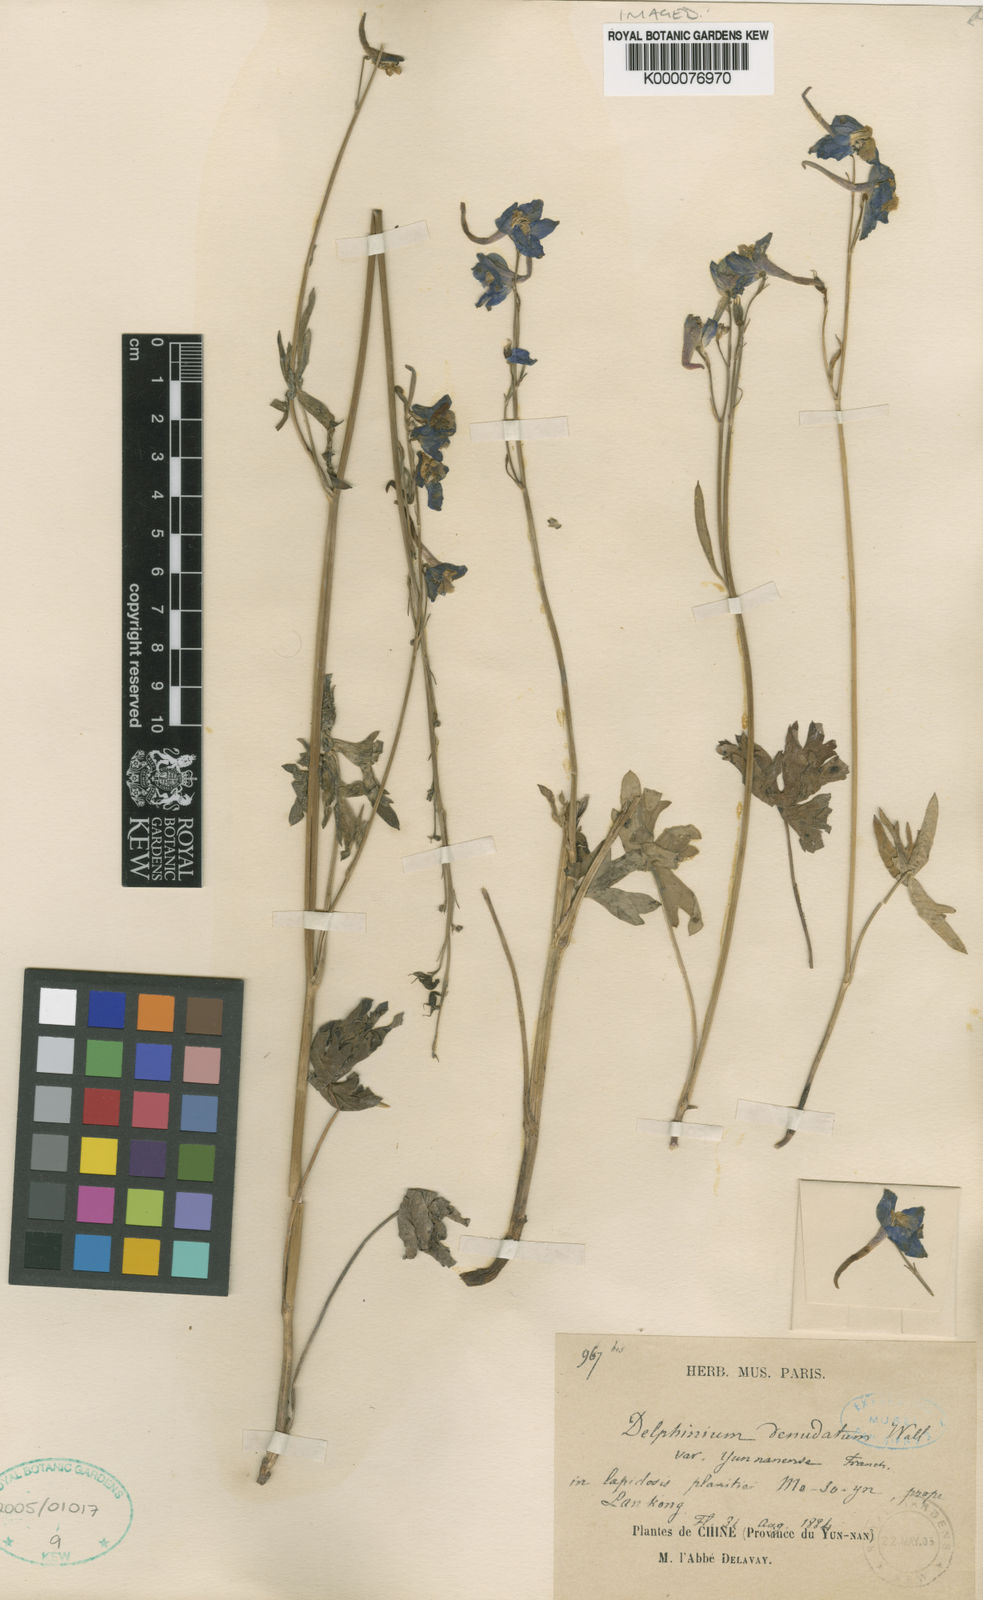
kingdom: Plantae
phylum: Tracheophyta
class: Magnoliopsida
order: Ranunculales
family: Ranunculaceae
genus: Delphinium
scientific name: Delphinium yunnanense
